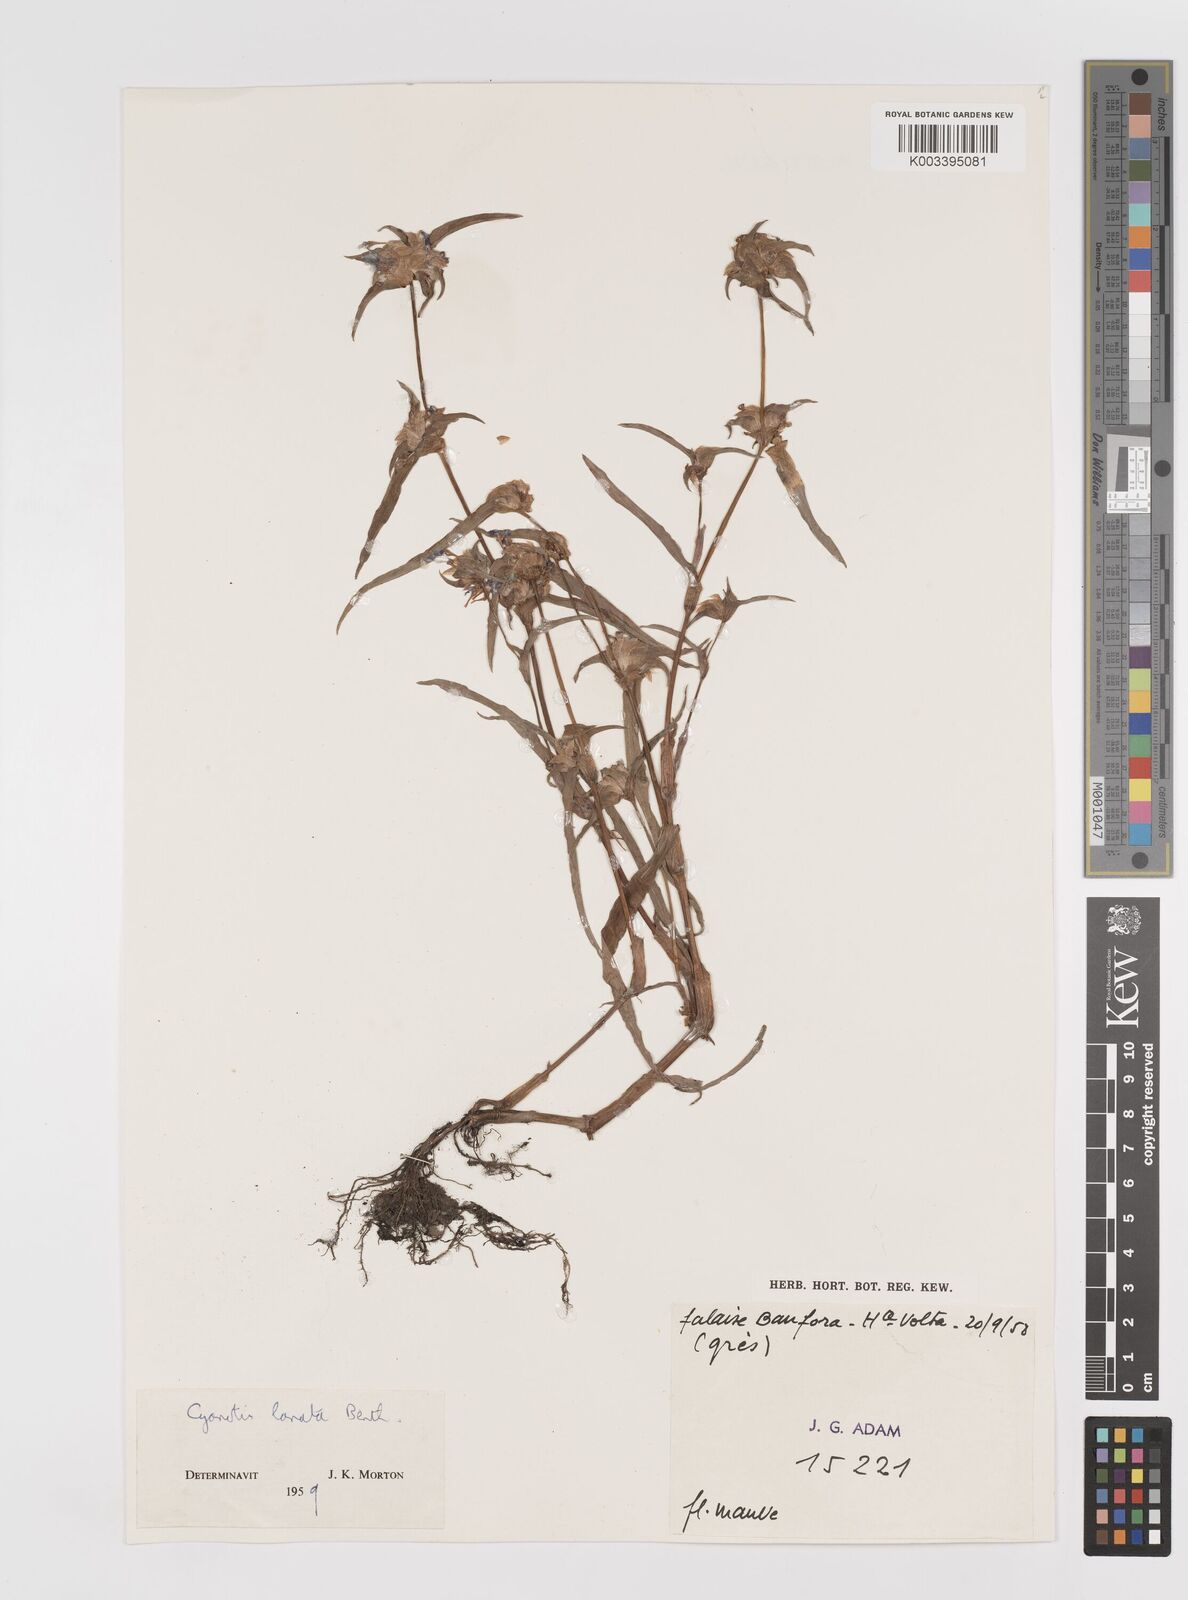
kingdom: Plantae
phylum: Tracheophyta
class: Liliopsida
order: Commelinales
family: Commelinaceae
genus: Cyanotis
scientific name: Cyanotis lanata
